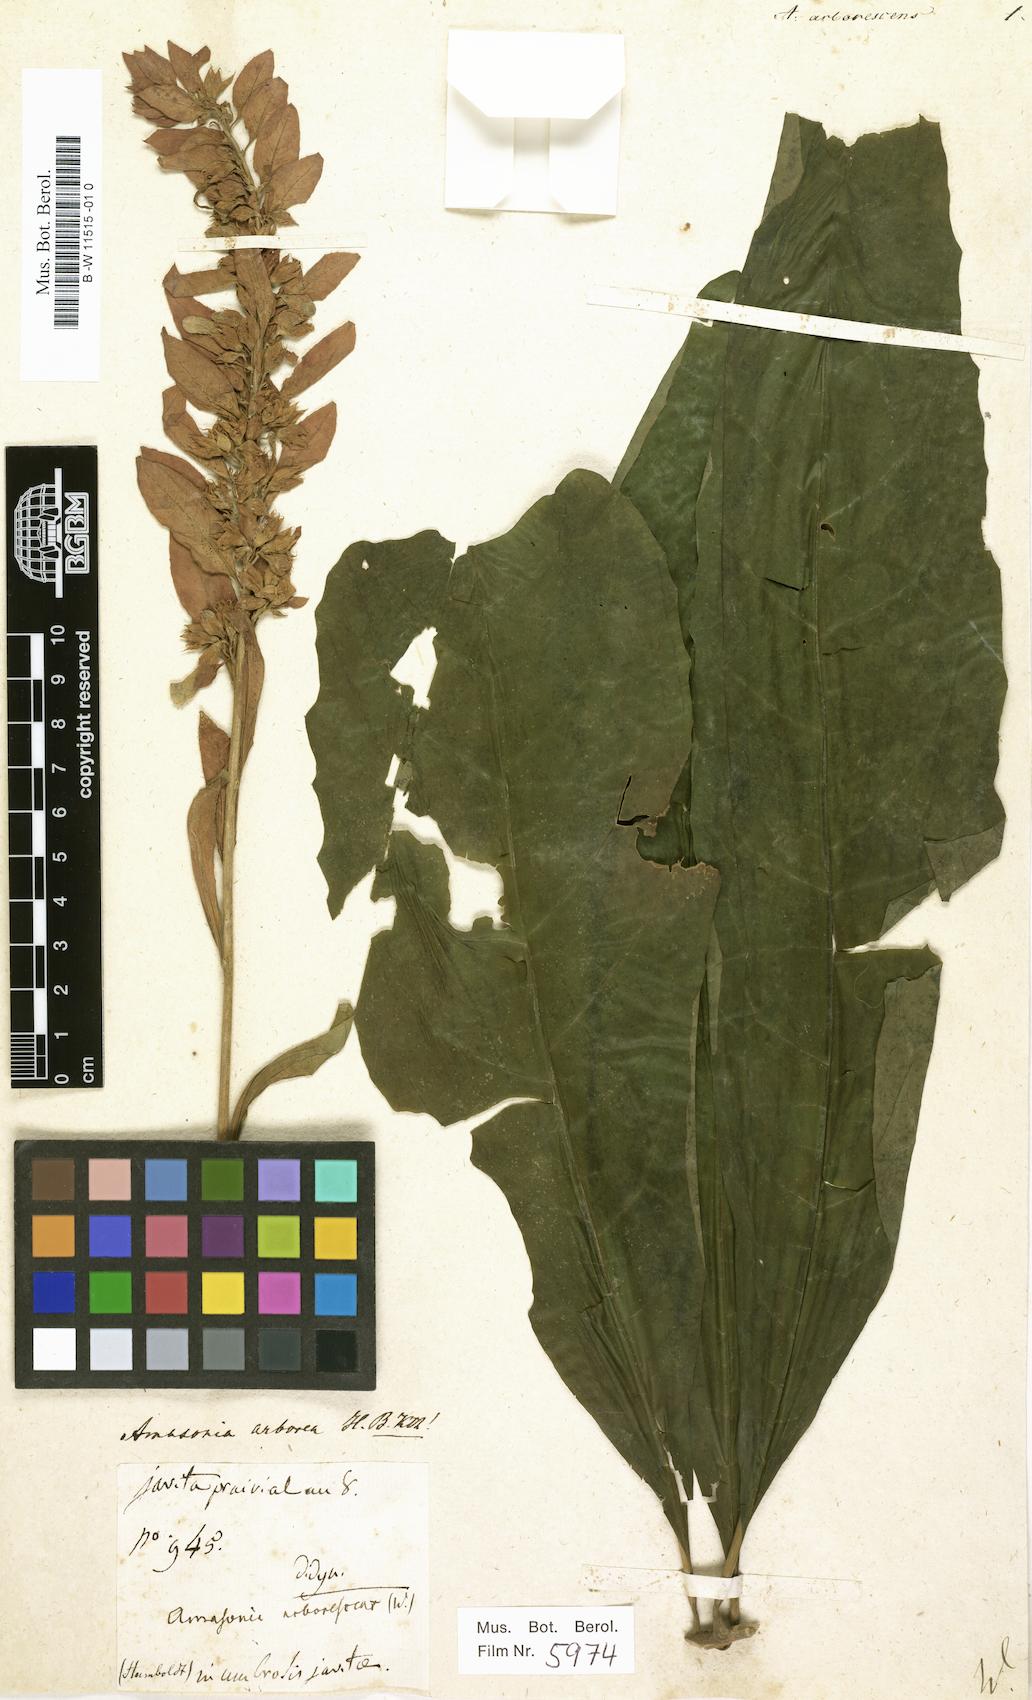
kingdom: Plantae
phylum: Tracheophyta
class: Magnoliopsida
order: Lamiales
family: Lamiaceae
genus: Amasonia
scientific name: Amasonia
